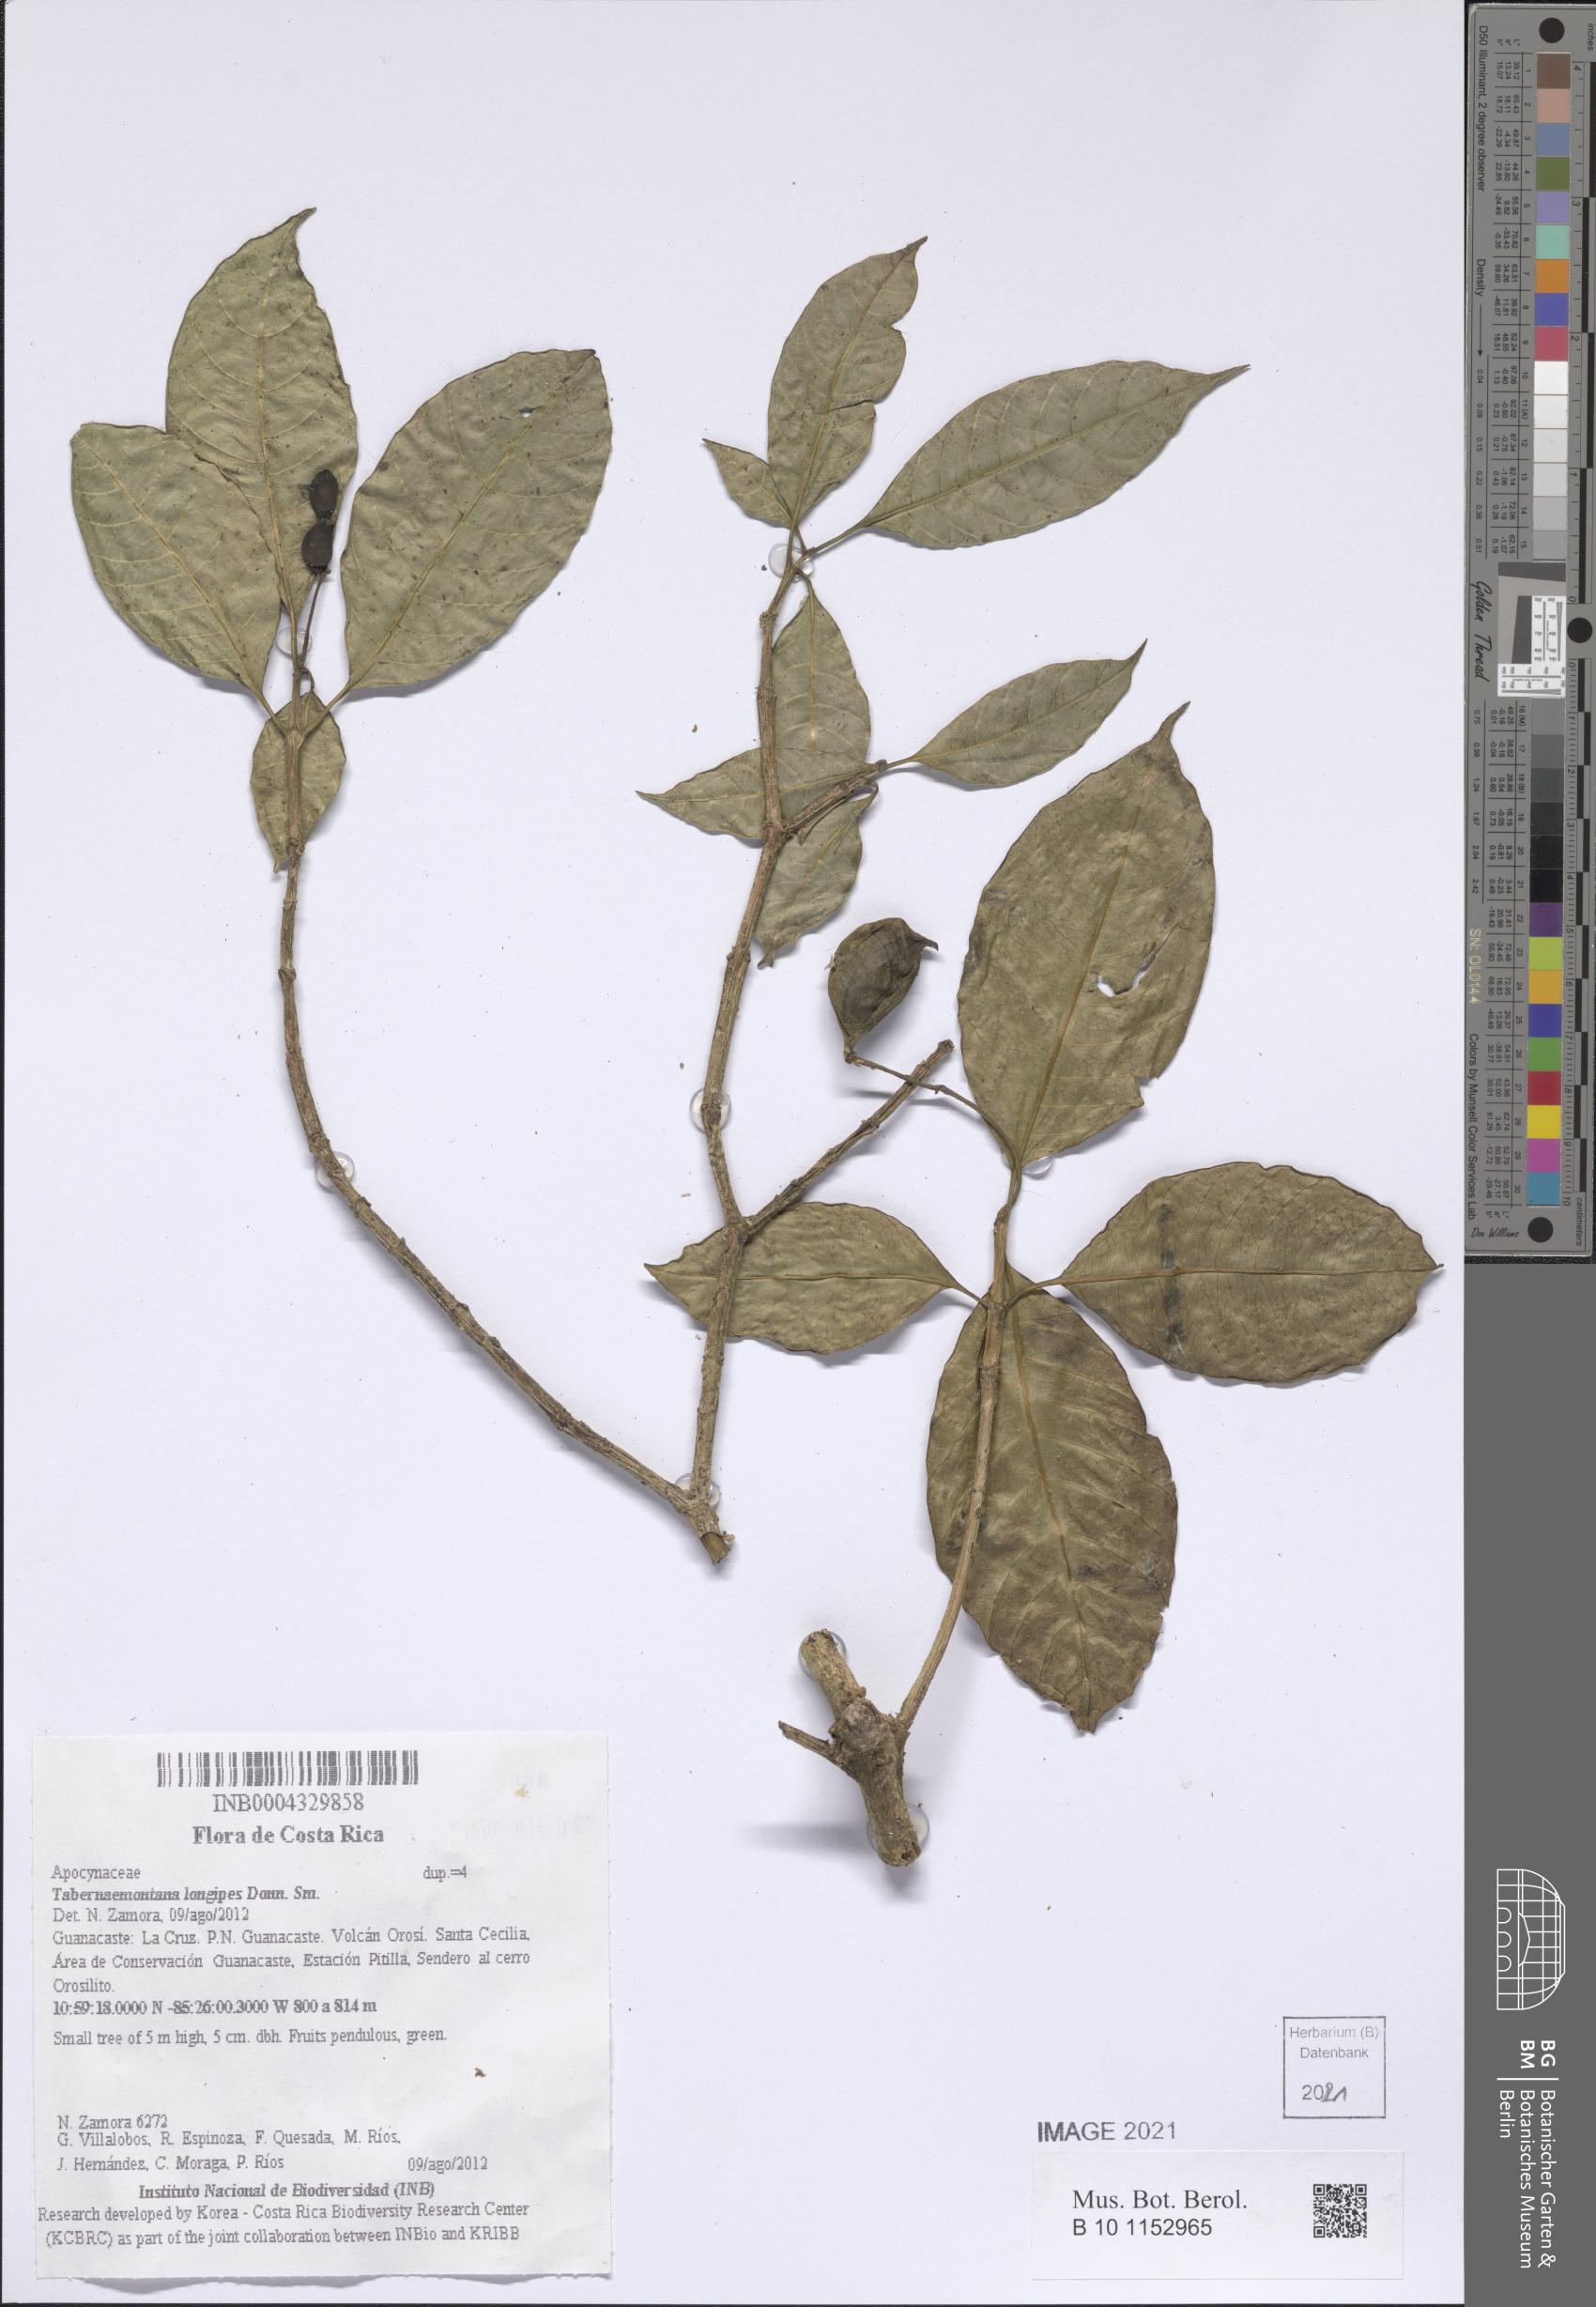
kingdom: Plantae
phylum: Tracheophyta
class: Magnoliopsida
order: Gentianales
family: Apocynaceae
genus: Tabernaemontana
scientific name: Tabernaemontana longipes
